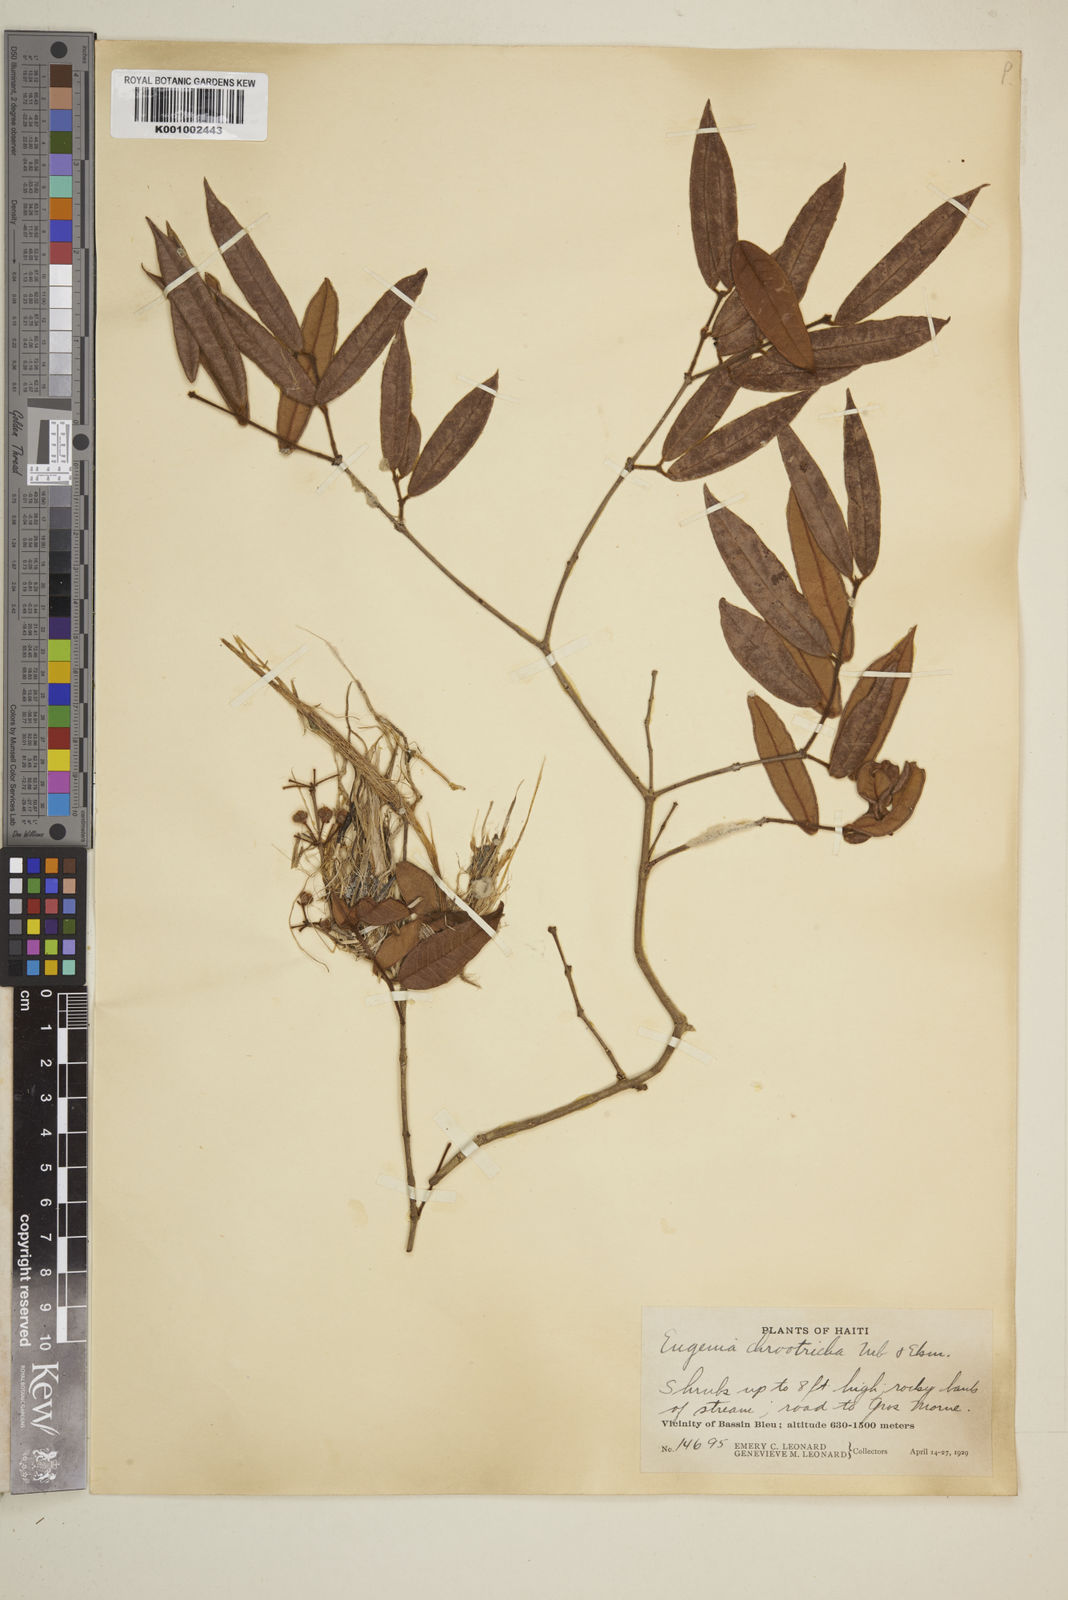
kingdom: Plantae
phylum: Tracheophyta
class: Magnoliopsida
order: Myrtales
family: Myrtaceae
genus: Eugenia
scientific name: Eugenia chrootricha
